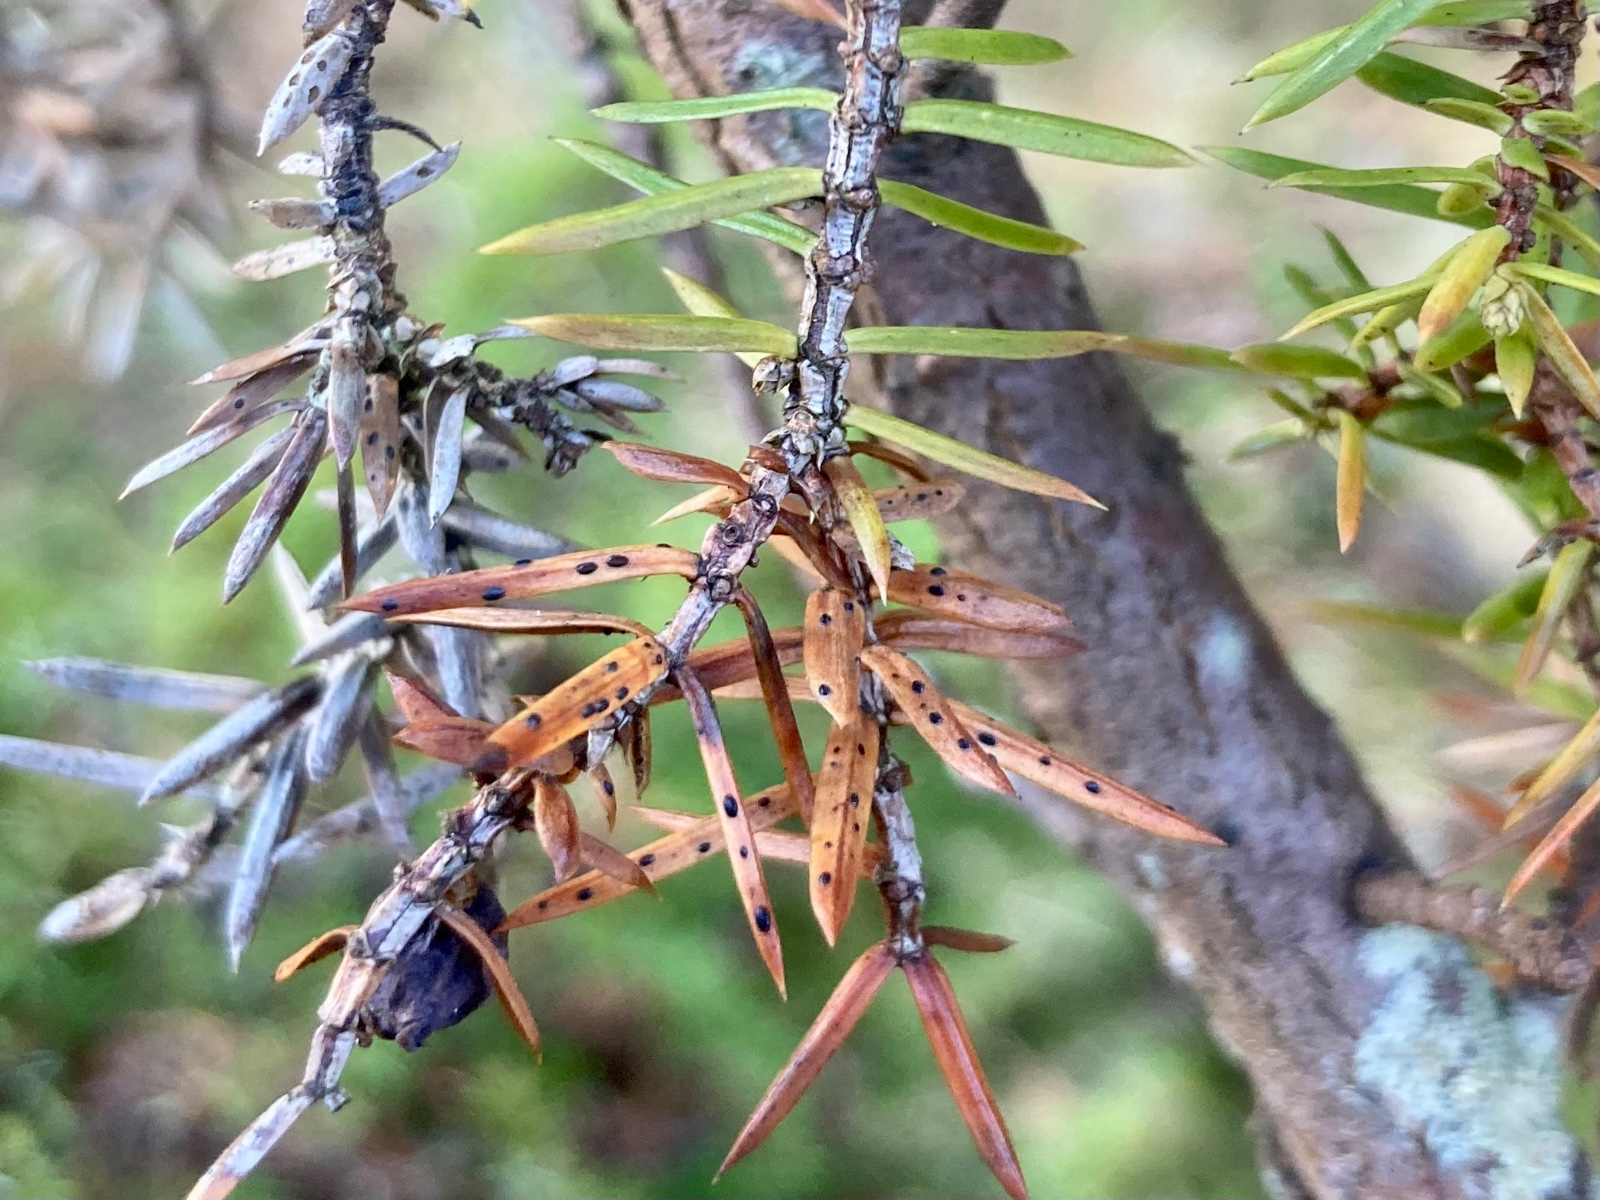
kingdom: Fungi
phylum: Ascomycota
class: Leotiomycetes
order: Rhytismatales
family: Rhytismataceae
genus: Lophodermium
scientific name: Lophodermium juniperinum
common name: ene-fureplet
